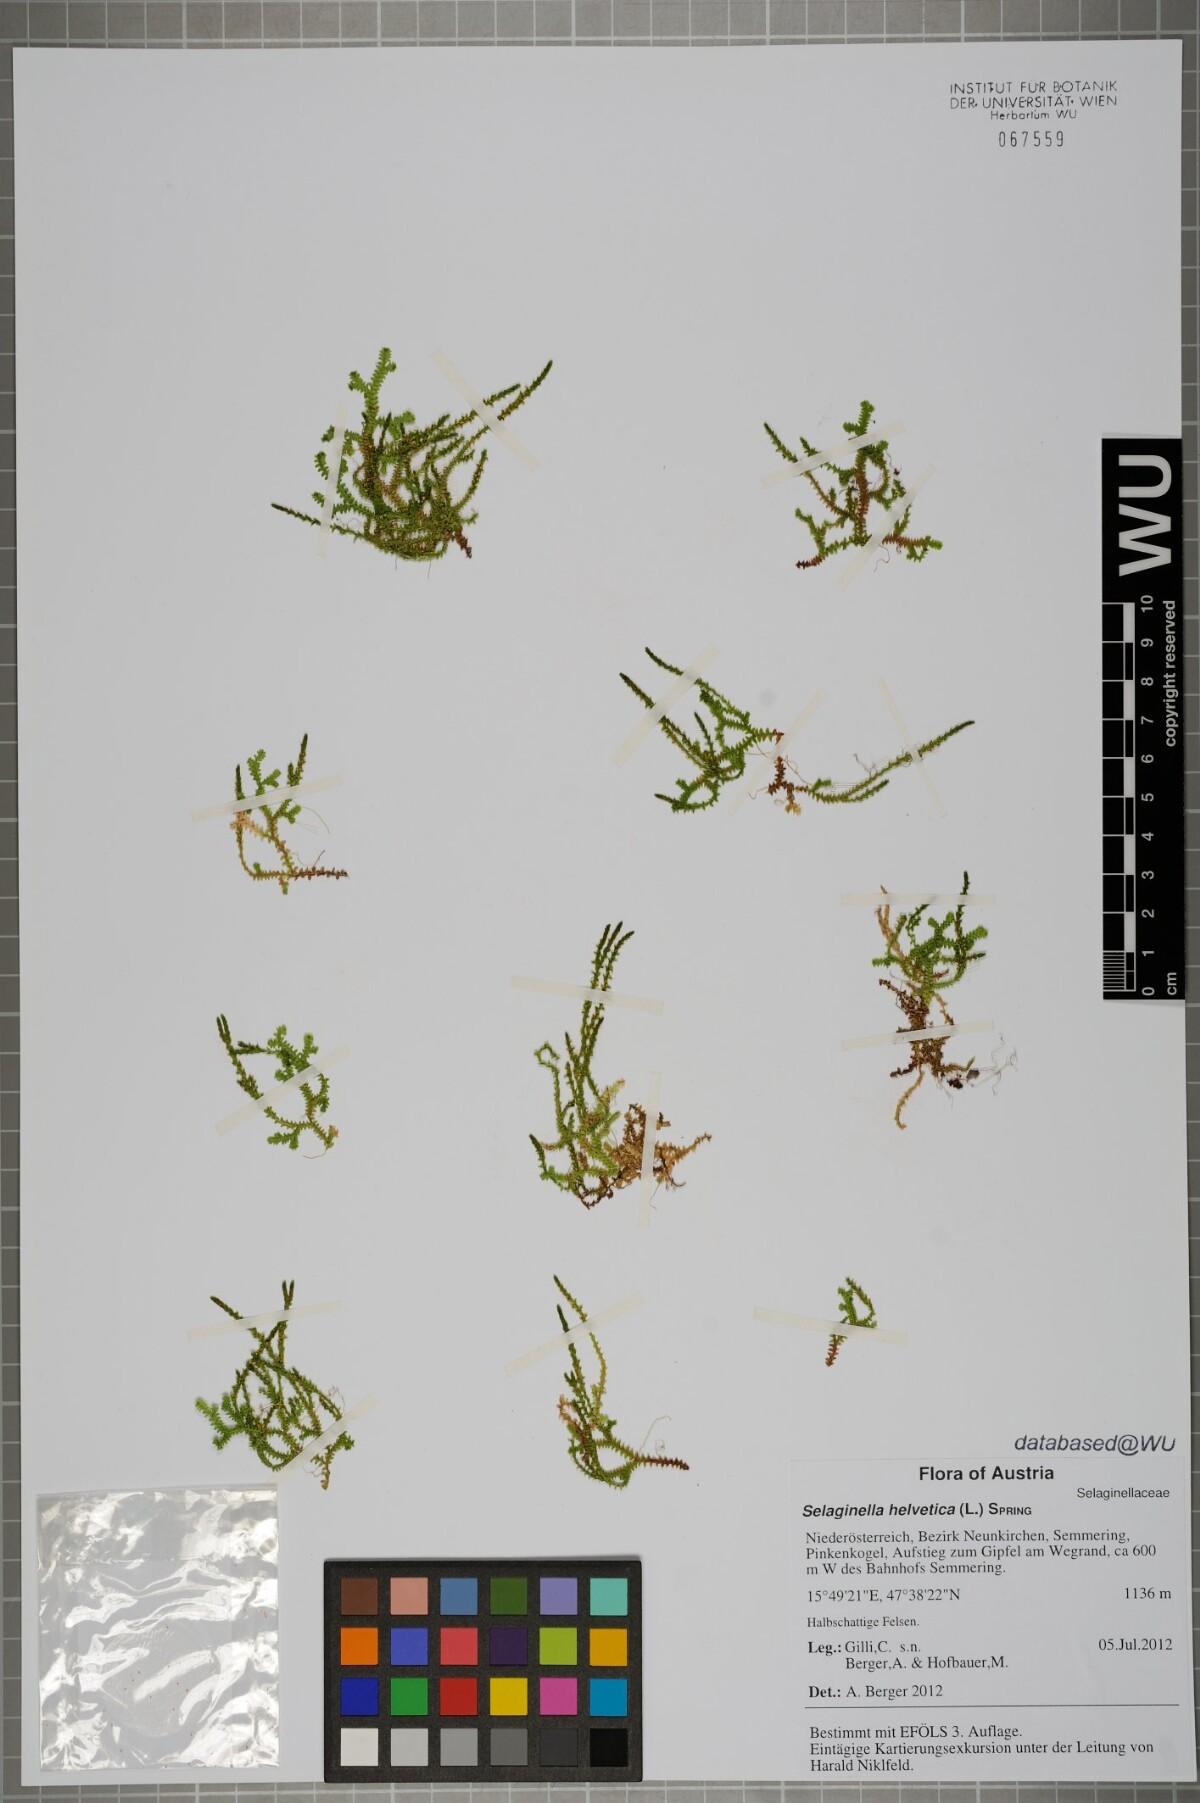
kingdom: Plantae
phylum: Tracheophyta
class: Lycopodiopsida
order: Selaginellales
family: Selaginellaceae
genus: Selaginella
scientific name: Selaginella helvetica
